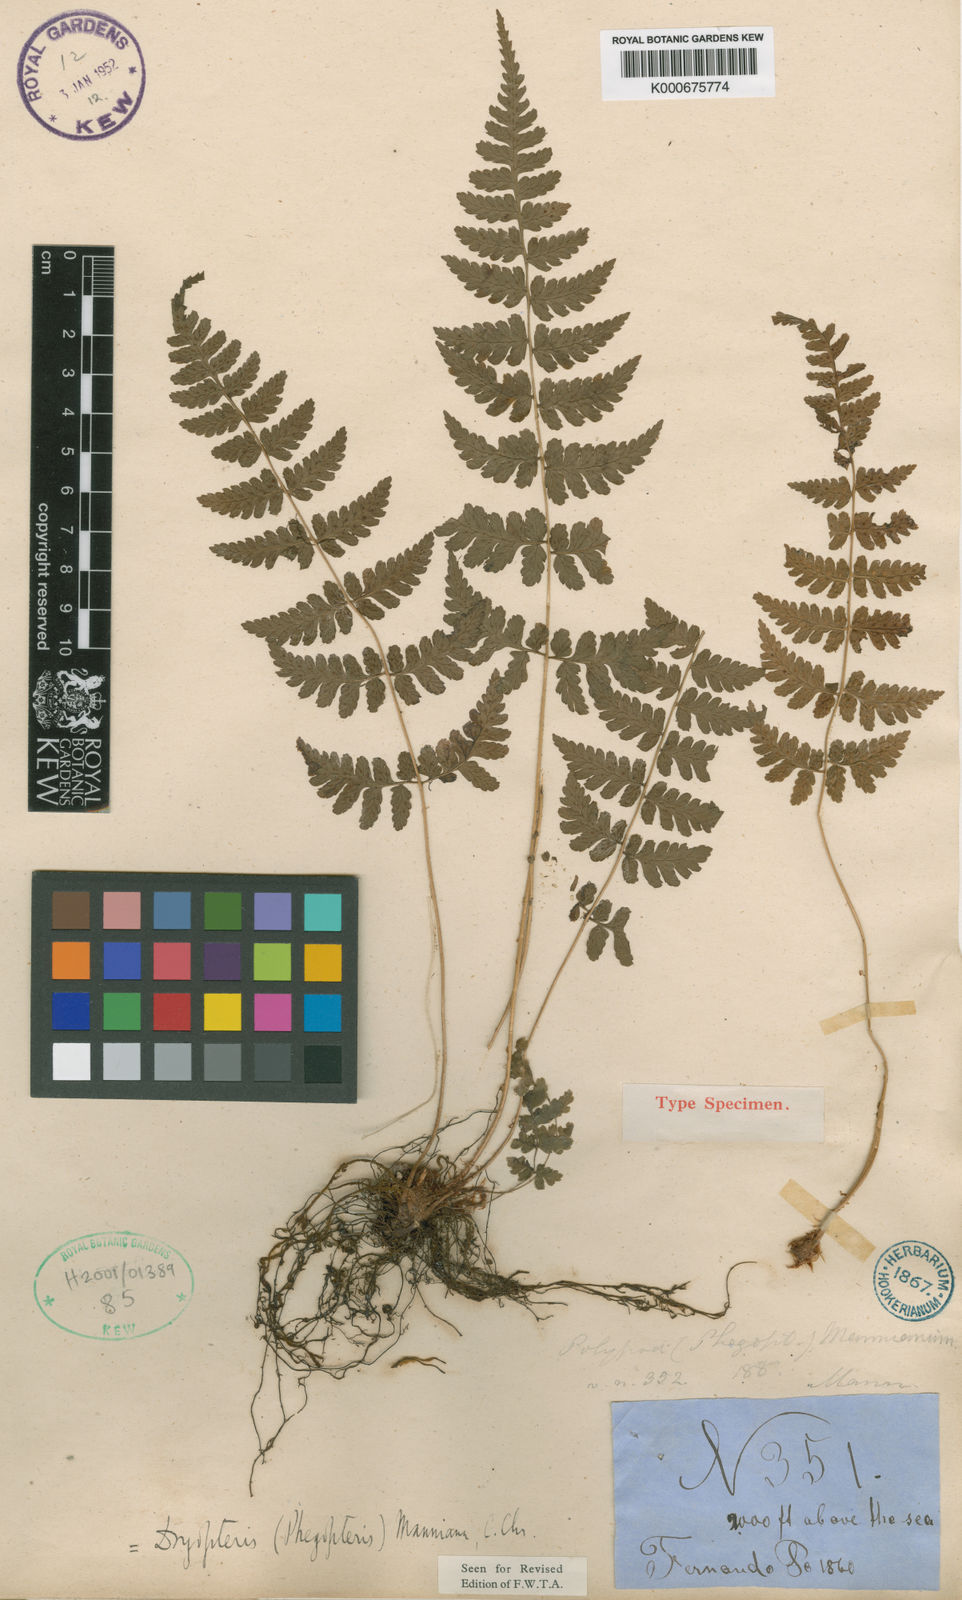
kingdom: Plantae
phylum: Tracheophyta
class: Polypodiopsida
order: Polypodiales
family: Dryopteridaceae
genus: Dryopteris
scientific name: Dryopteris manniana
